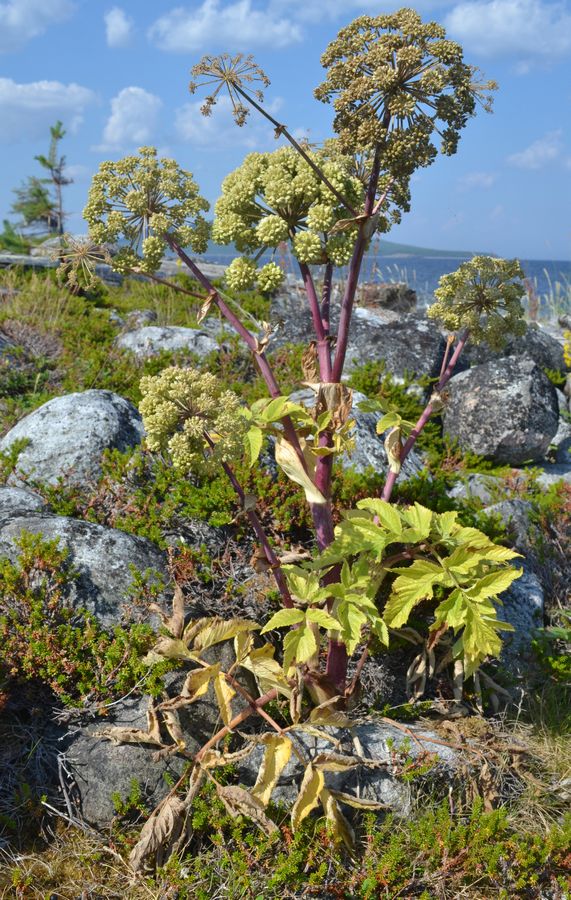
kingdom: Plantae
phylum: Tracheophyta
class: Magnoliopsida
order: Apiales
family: Apiaceae
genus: Angelica
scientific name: Angelica archangelica
